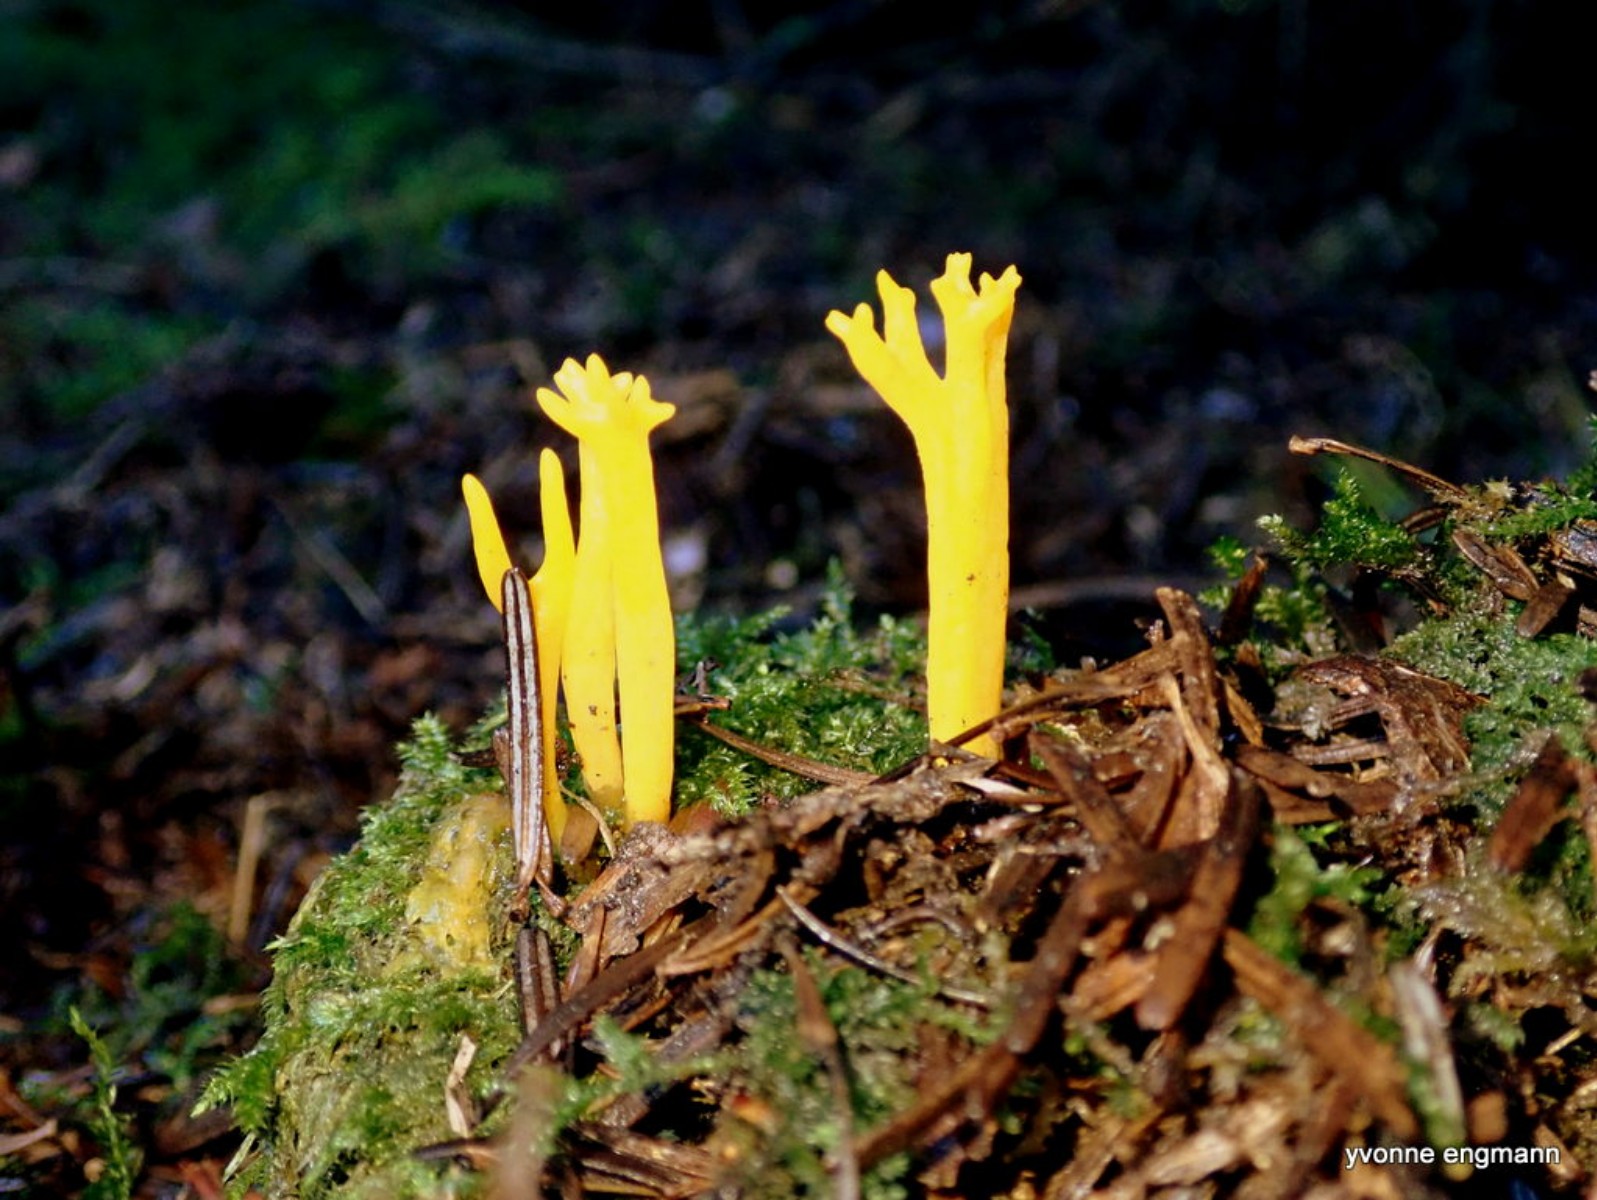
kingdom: Fungi
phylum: Basidiomycota
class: Dacrymycetes
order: Dacrymycetales
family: Dacrymycetaceae
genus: Calocera
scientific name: Calocera viscosa
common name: almindelig guldgaffel
